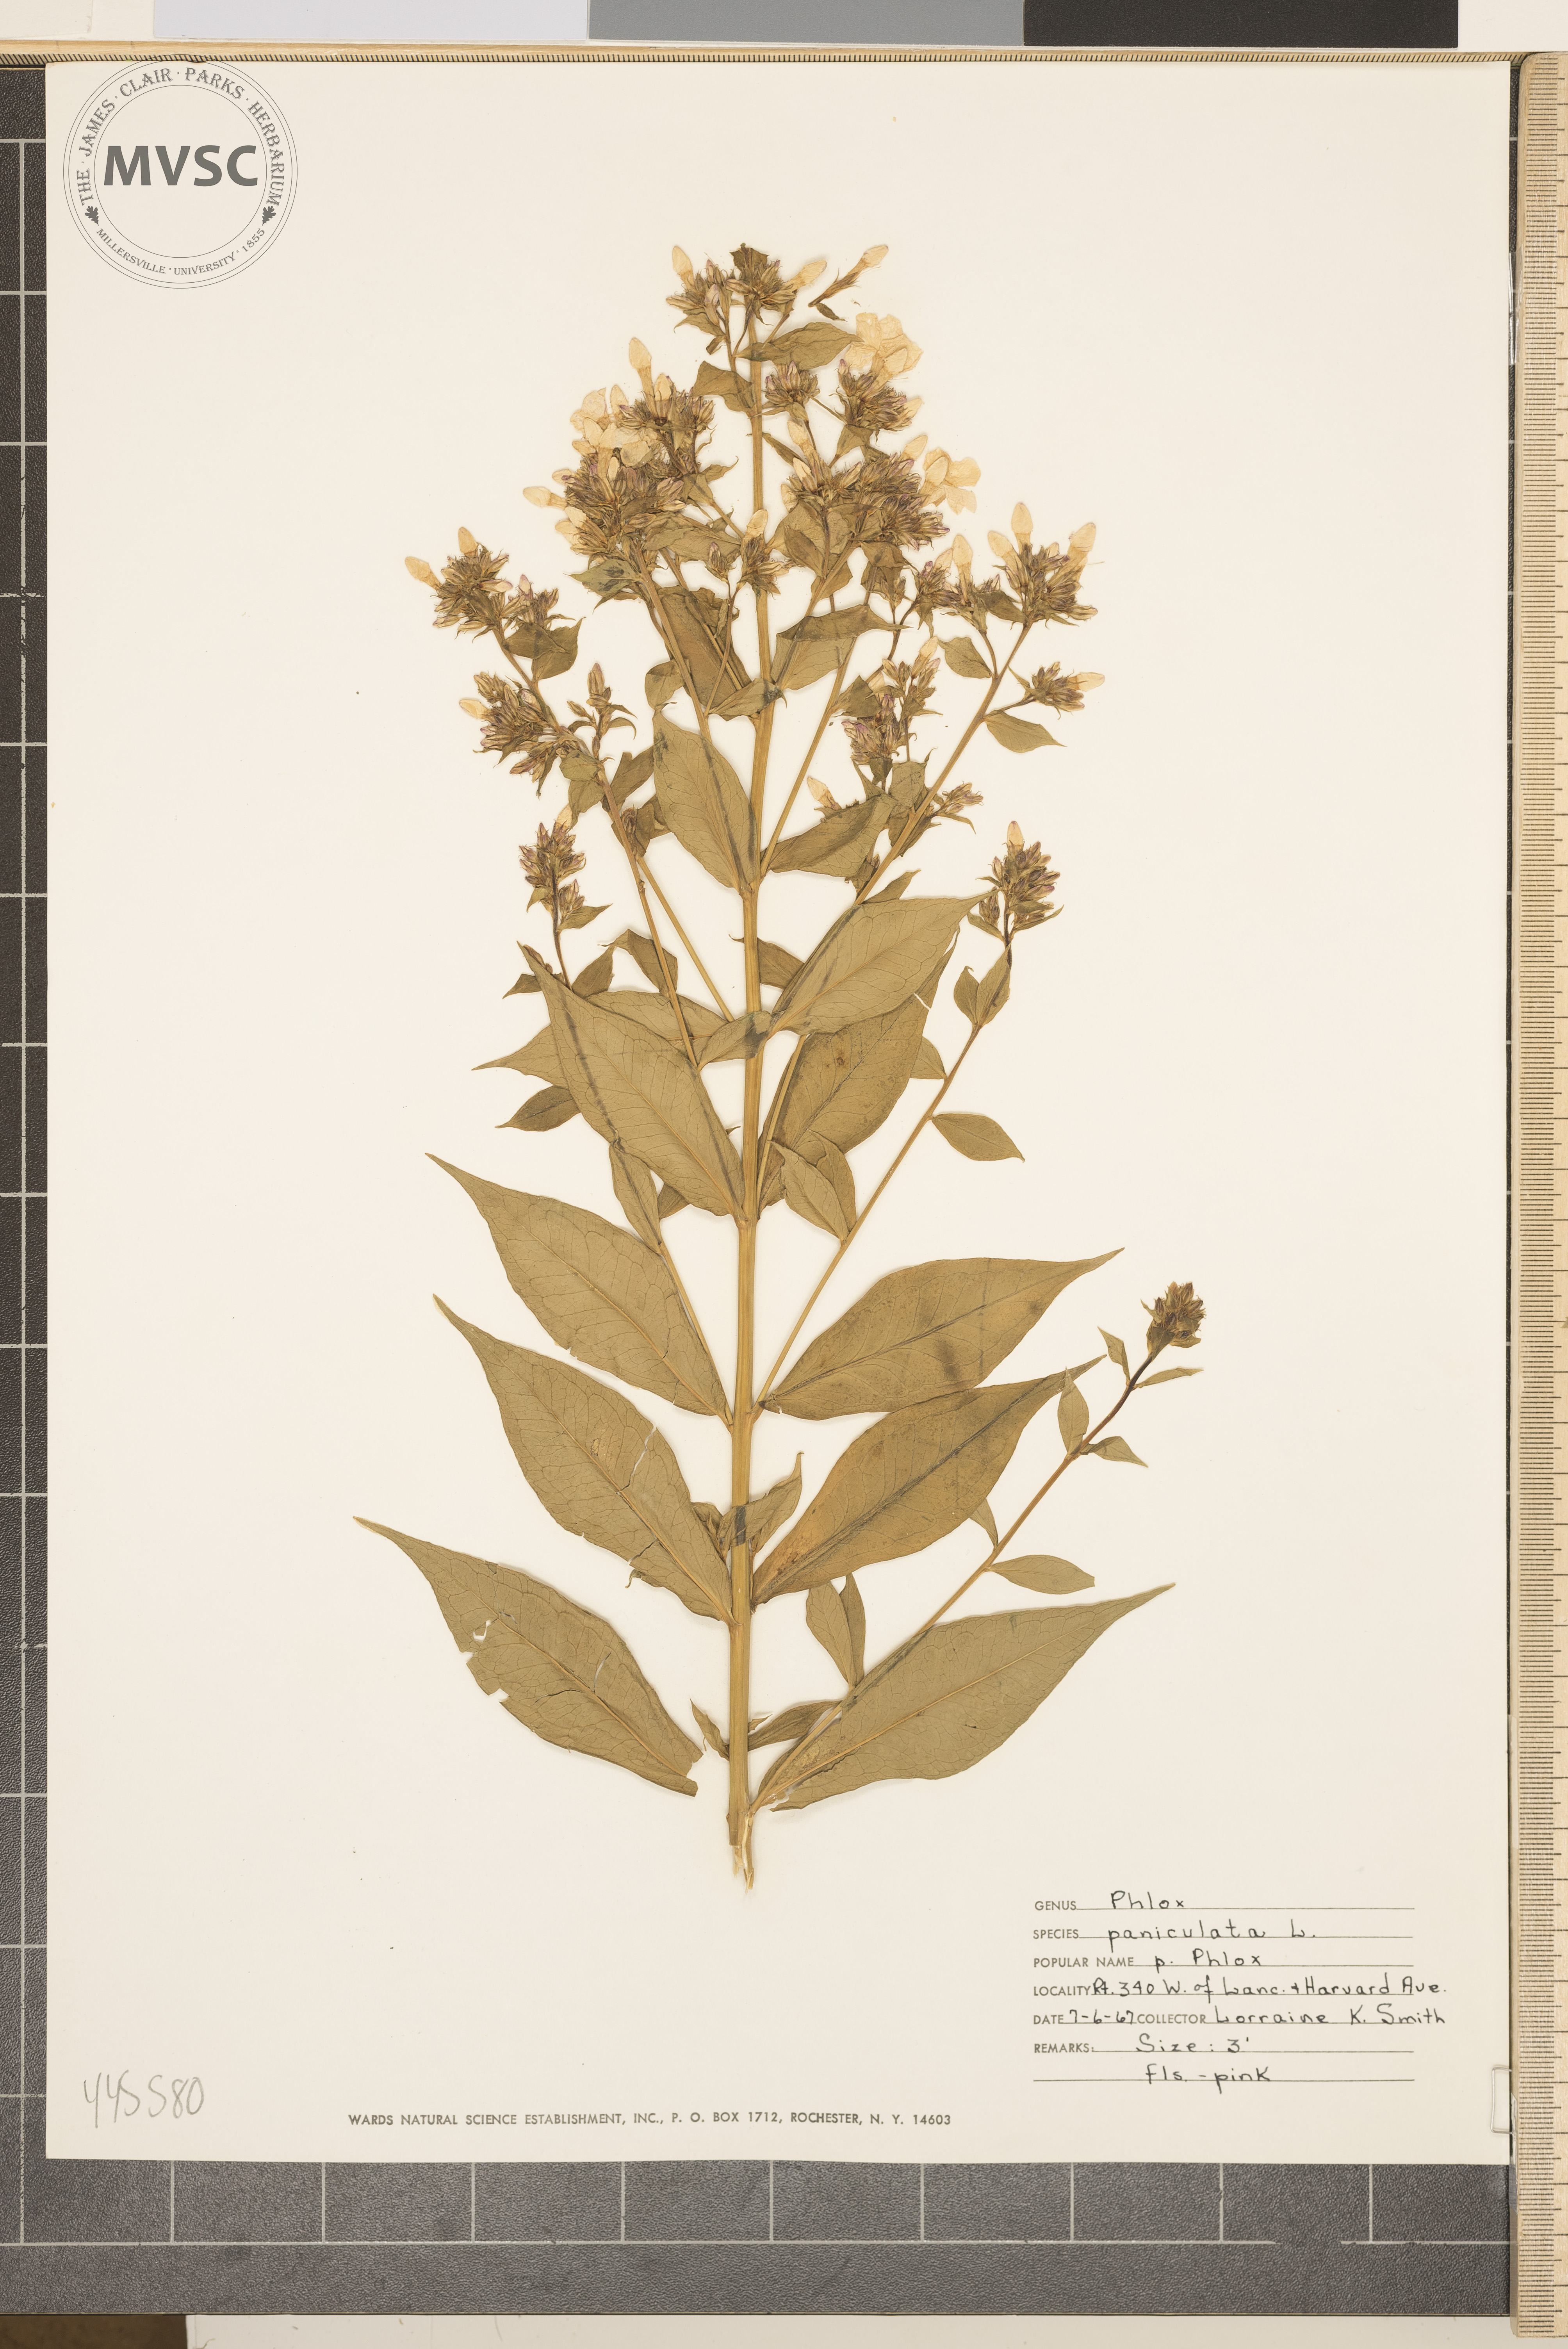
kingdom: Plantae
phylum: Tracheophyta
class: Magnoliopsida
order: Ericales
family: Polemoniaceae
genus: Phlox
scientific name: Phlox paniculata
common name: Phlox
